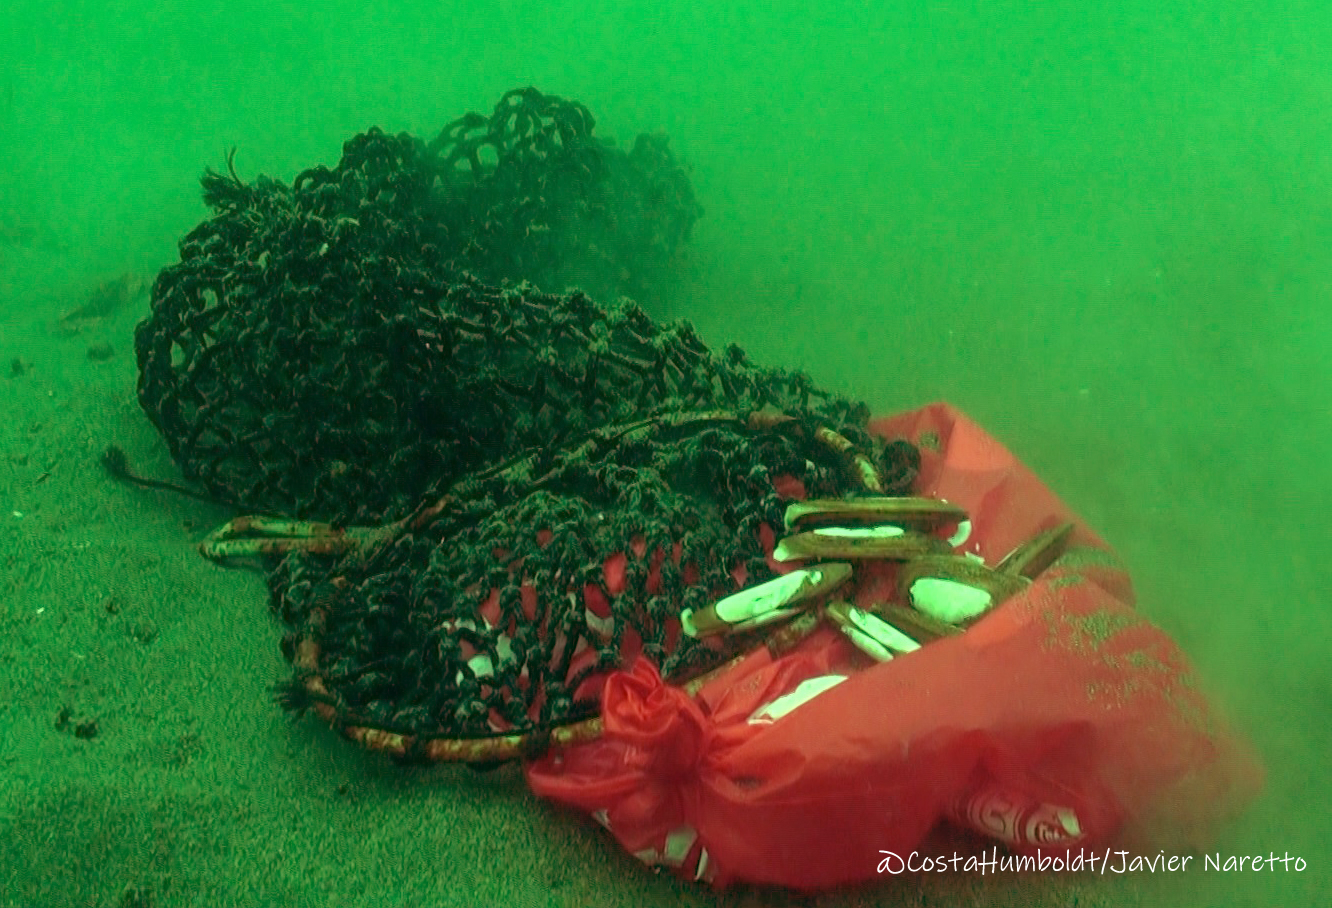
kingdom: Animalia
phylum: Mollusca
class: Bivalvia
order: Cardiida
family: Solecurtidae
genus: Tagelus
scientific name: Tagelus dombeii
